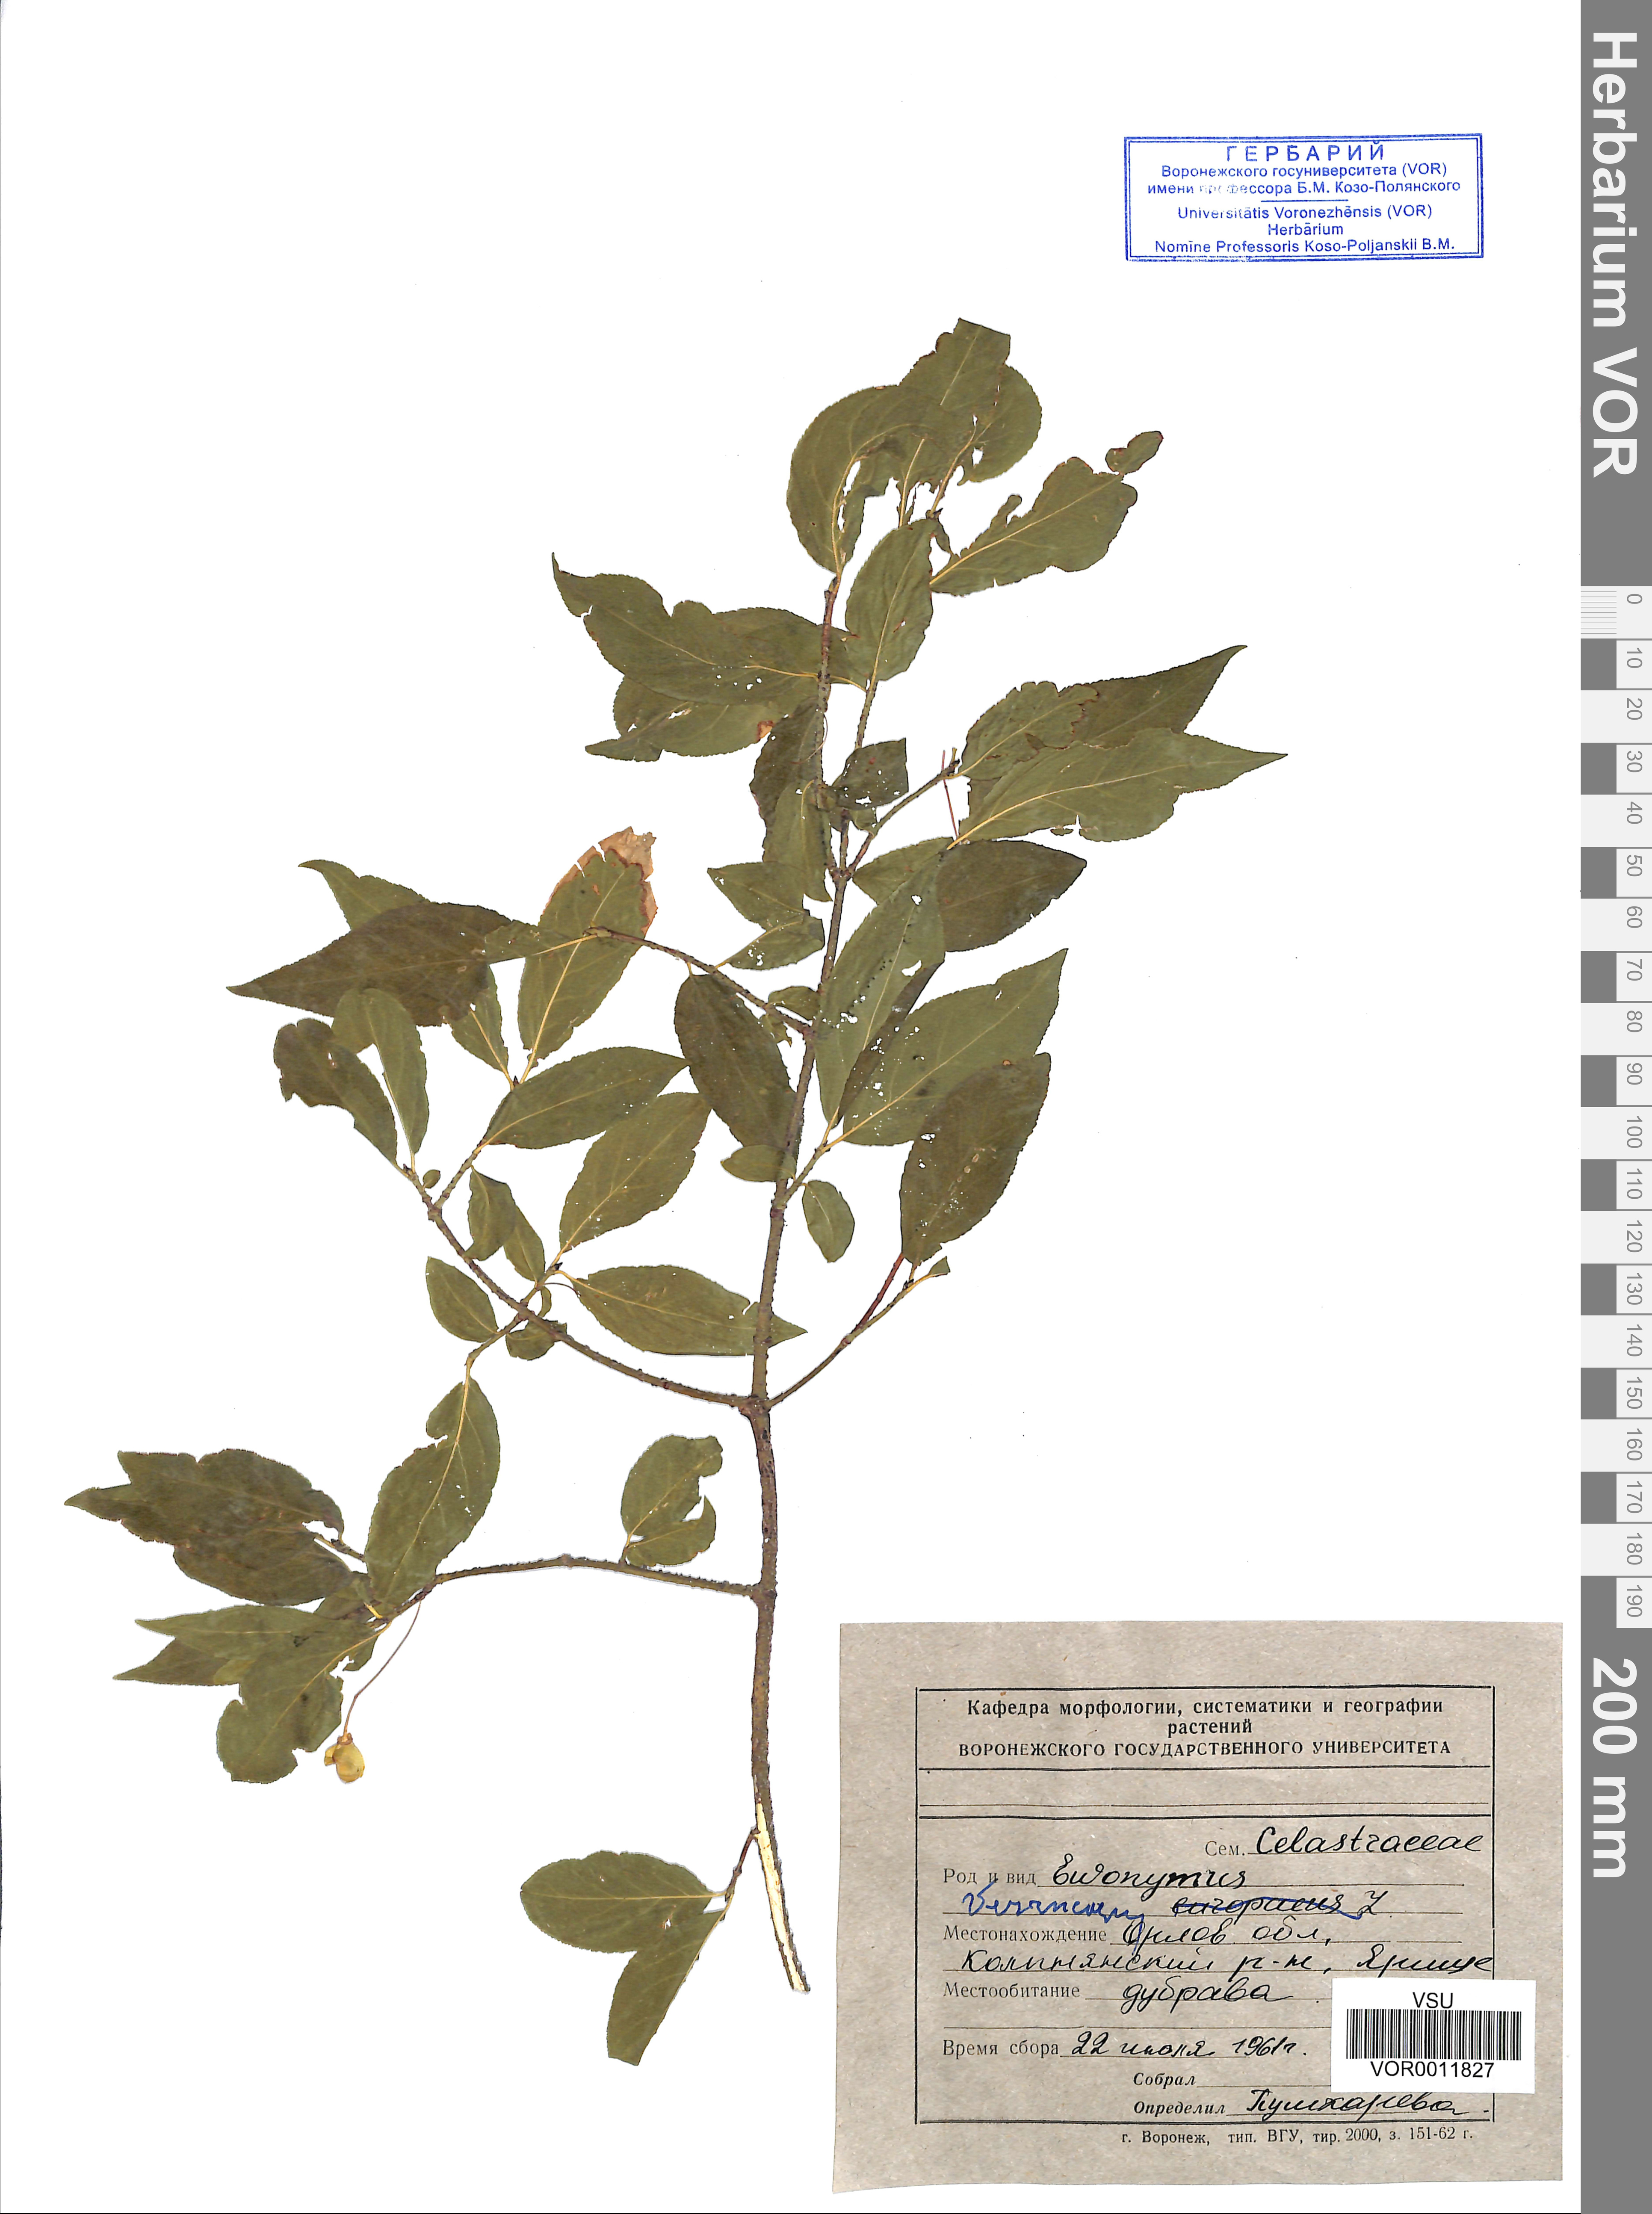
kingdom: Plantae
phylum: Tracheophyta
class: Magnoliopsida
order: Celastrales
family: Celastraceae
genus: Euonymus
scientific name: Euonymus verrucosus
